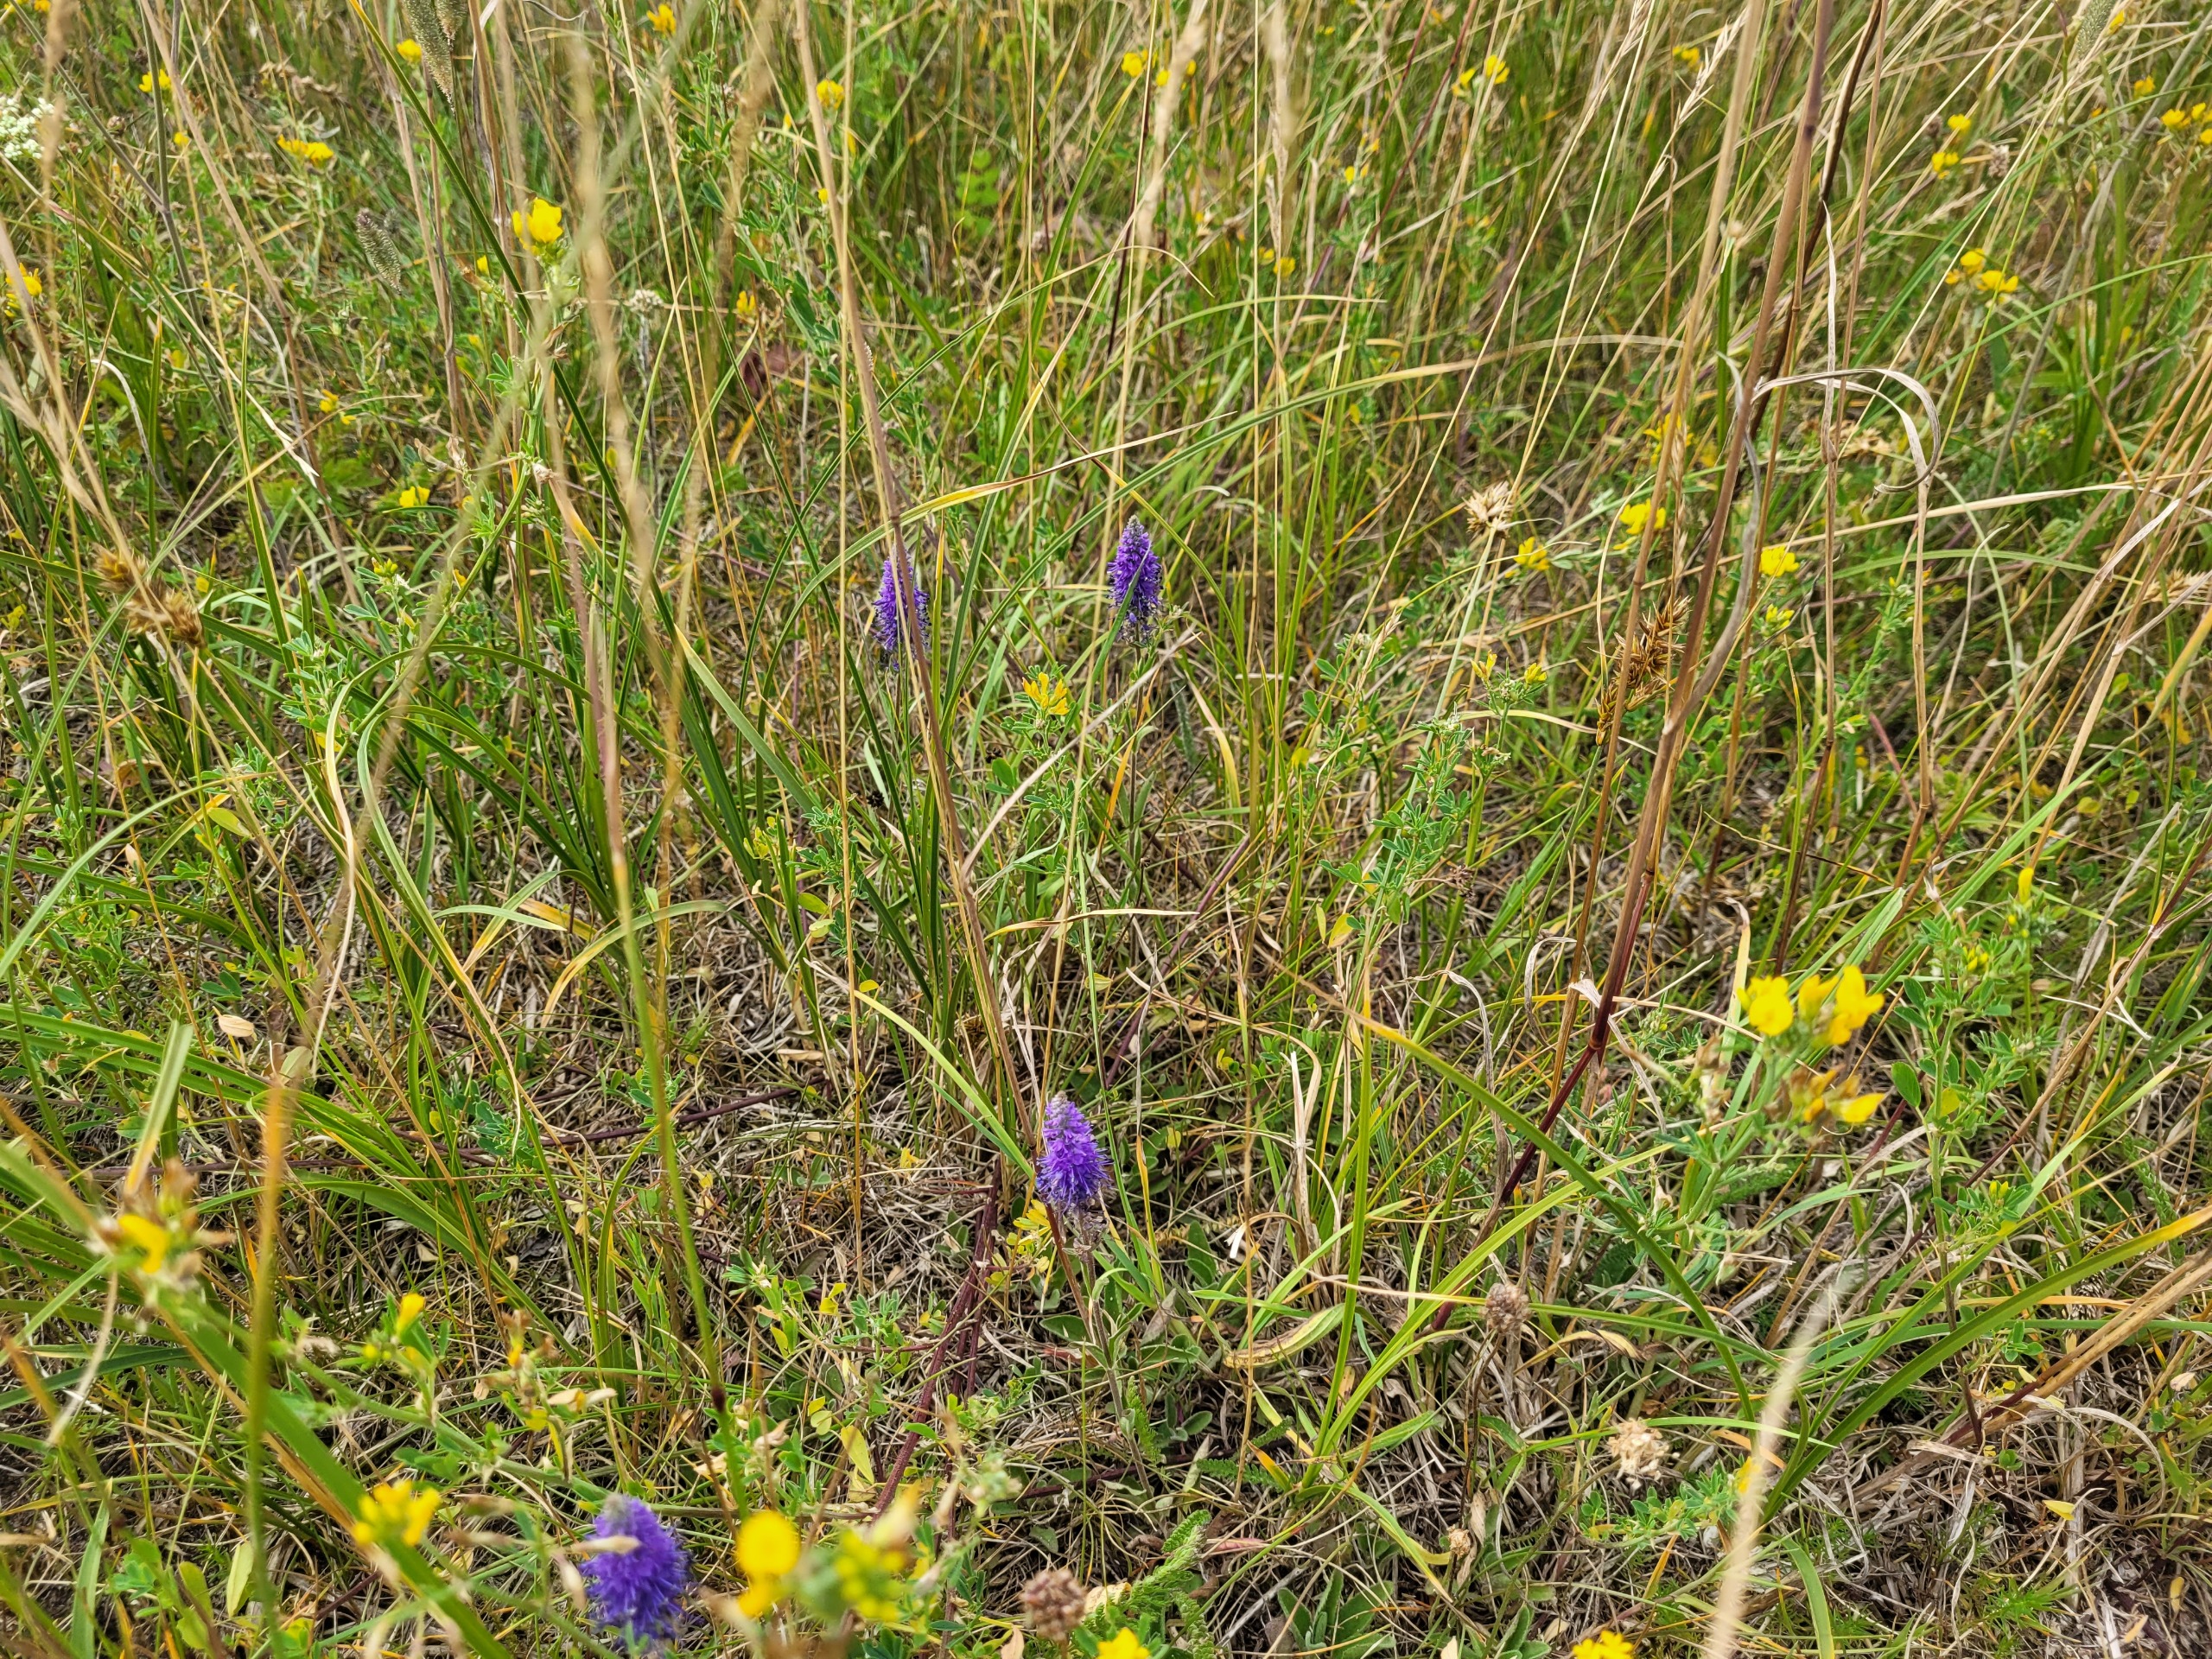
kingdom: Plantae
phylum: Tracheophyta
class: Magnoliopsida
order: Lamiales
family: Plantaginaceae
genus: Veronica
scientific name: Veronica spicata
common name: Aks-ærenpris
